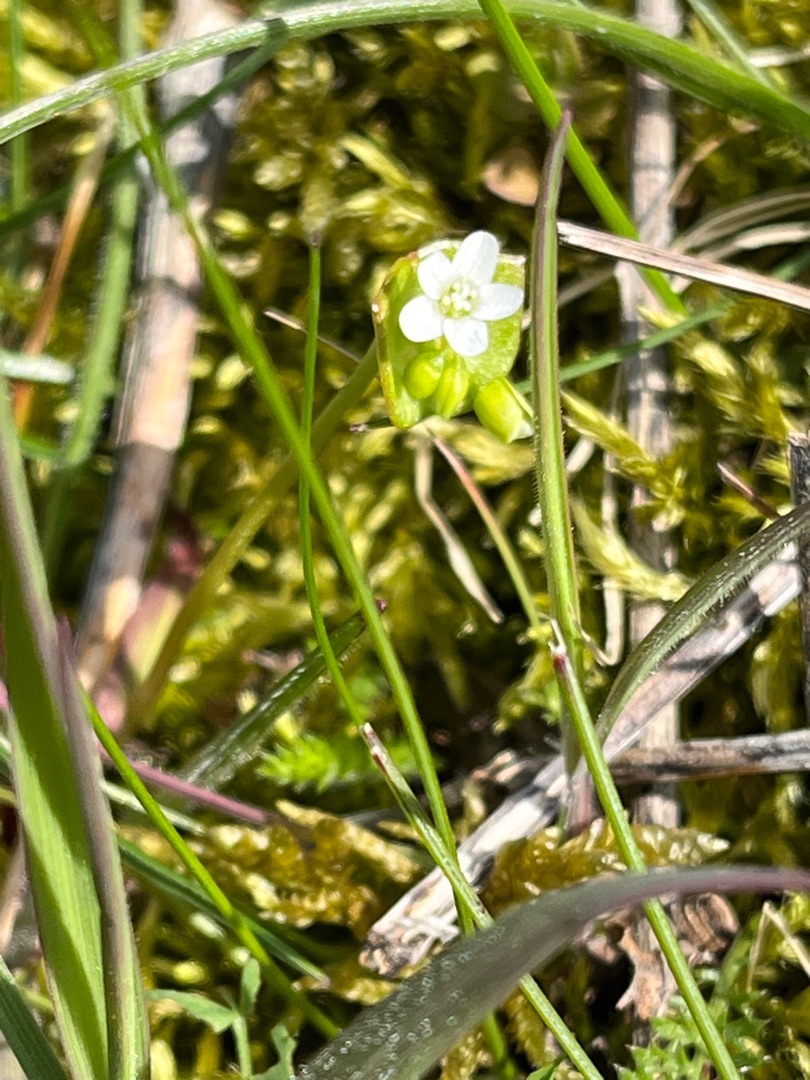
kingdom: Plantae
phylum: Tracheophyta
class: Magnoliopsida
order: Caryophyllales
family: Montiaceae
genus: Claytonia
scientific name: Claytonia perfoliata
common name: Spiselig vinterportulak
